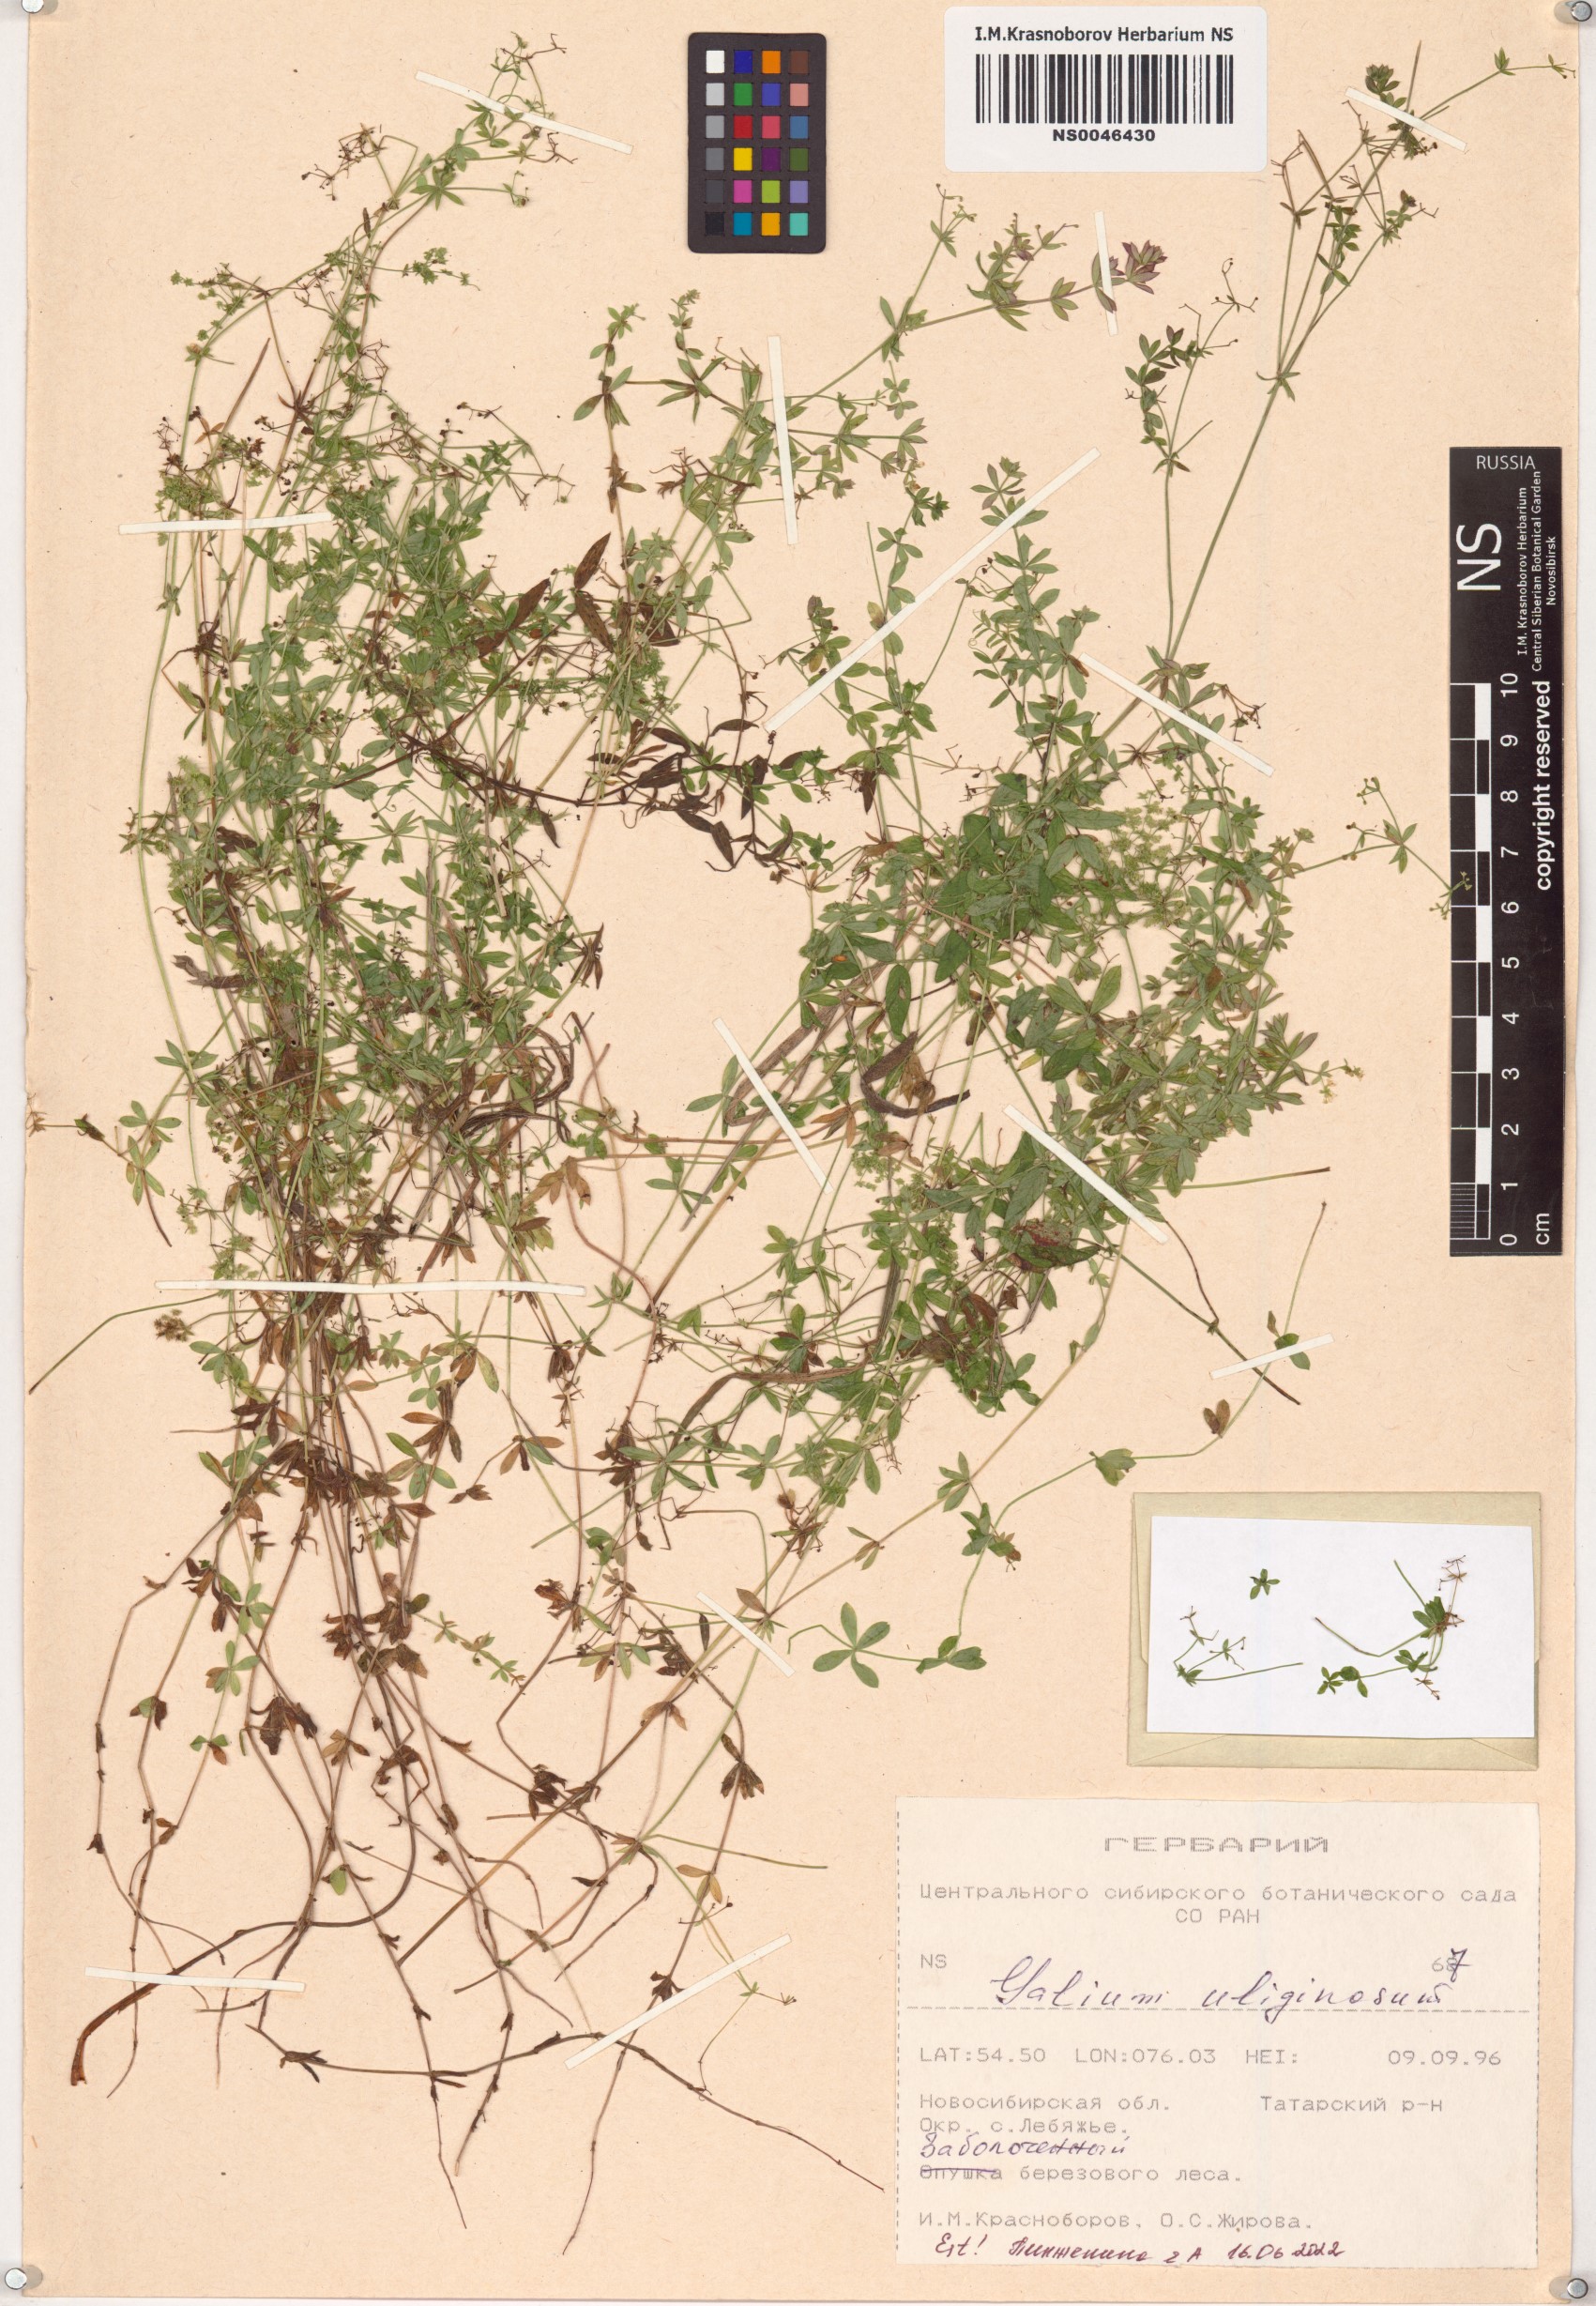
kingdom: Plantae
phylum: Tracheophyta
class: Magnoliopsida
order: Gentianales
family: Rubiaceae
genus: Galium
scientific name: Galium uliginosum
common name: Fen bedstraw
